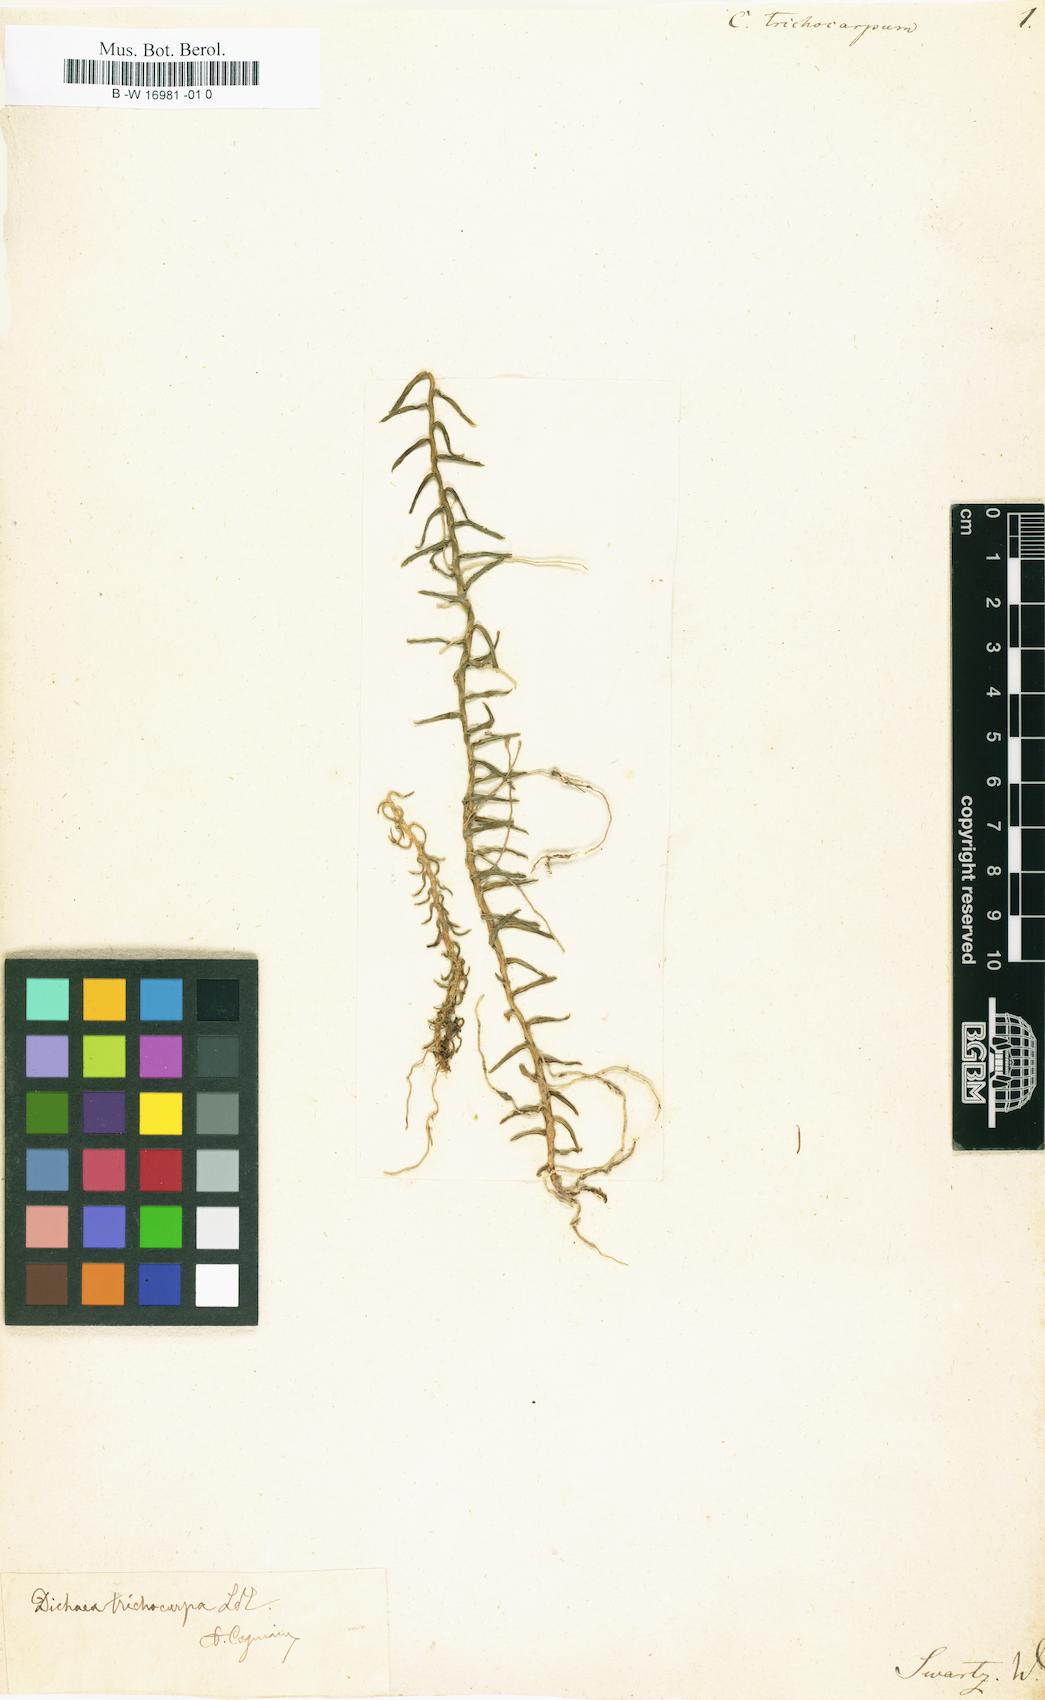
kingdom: Plantae
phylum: Tracheophyta
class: Liliopsida
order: Asparagales
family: Orchidaceae
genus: Dichaea
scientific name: Dichaea trichocarpa
